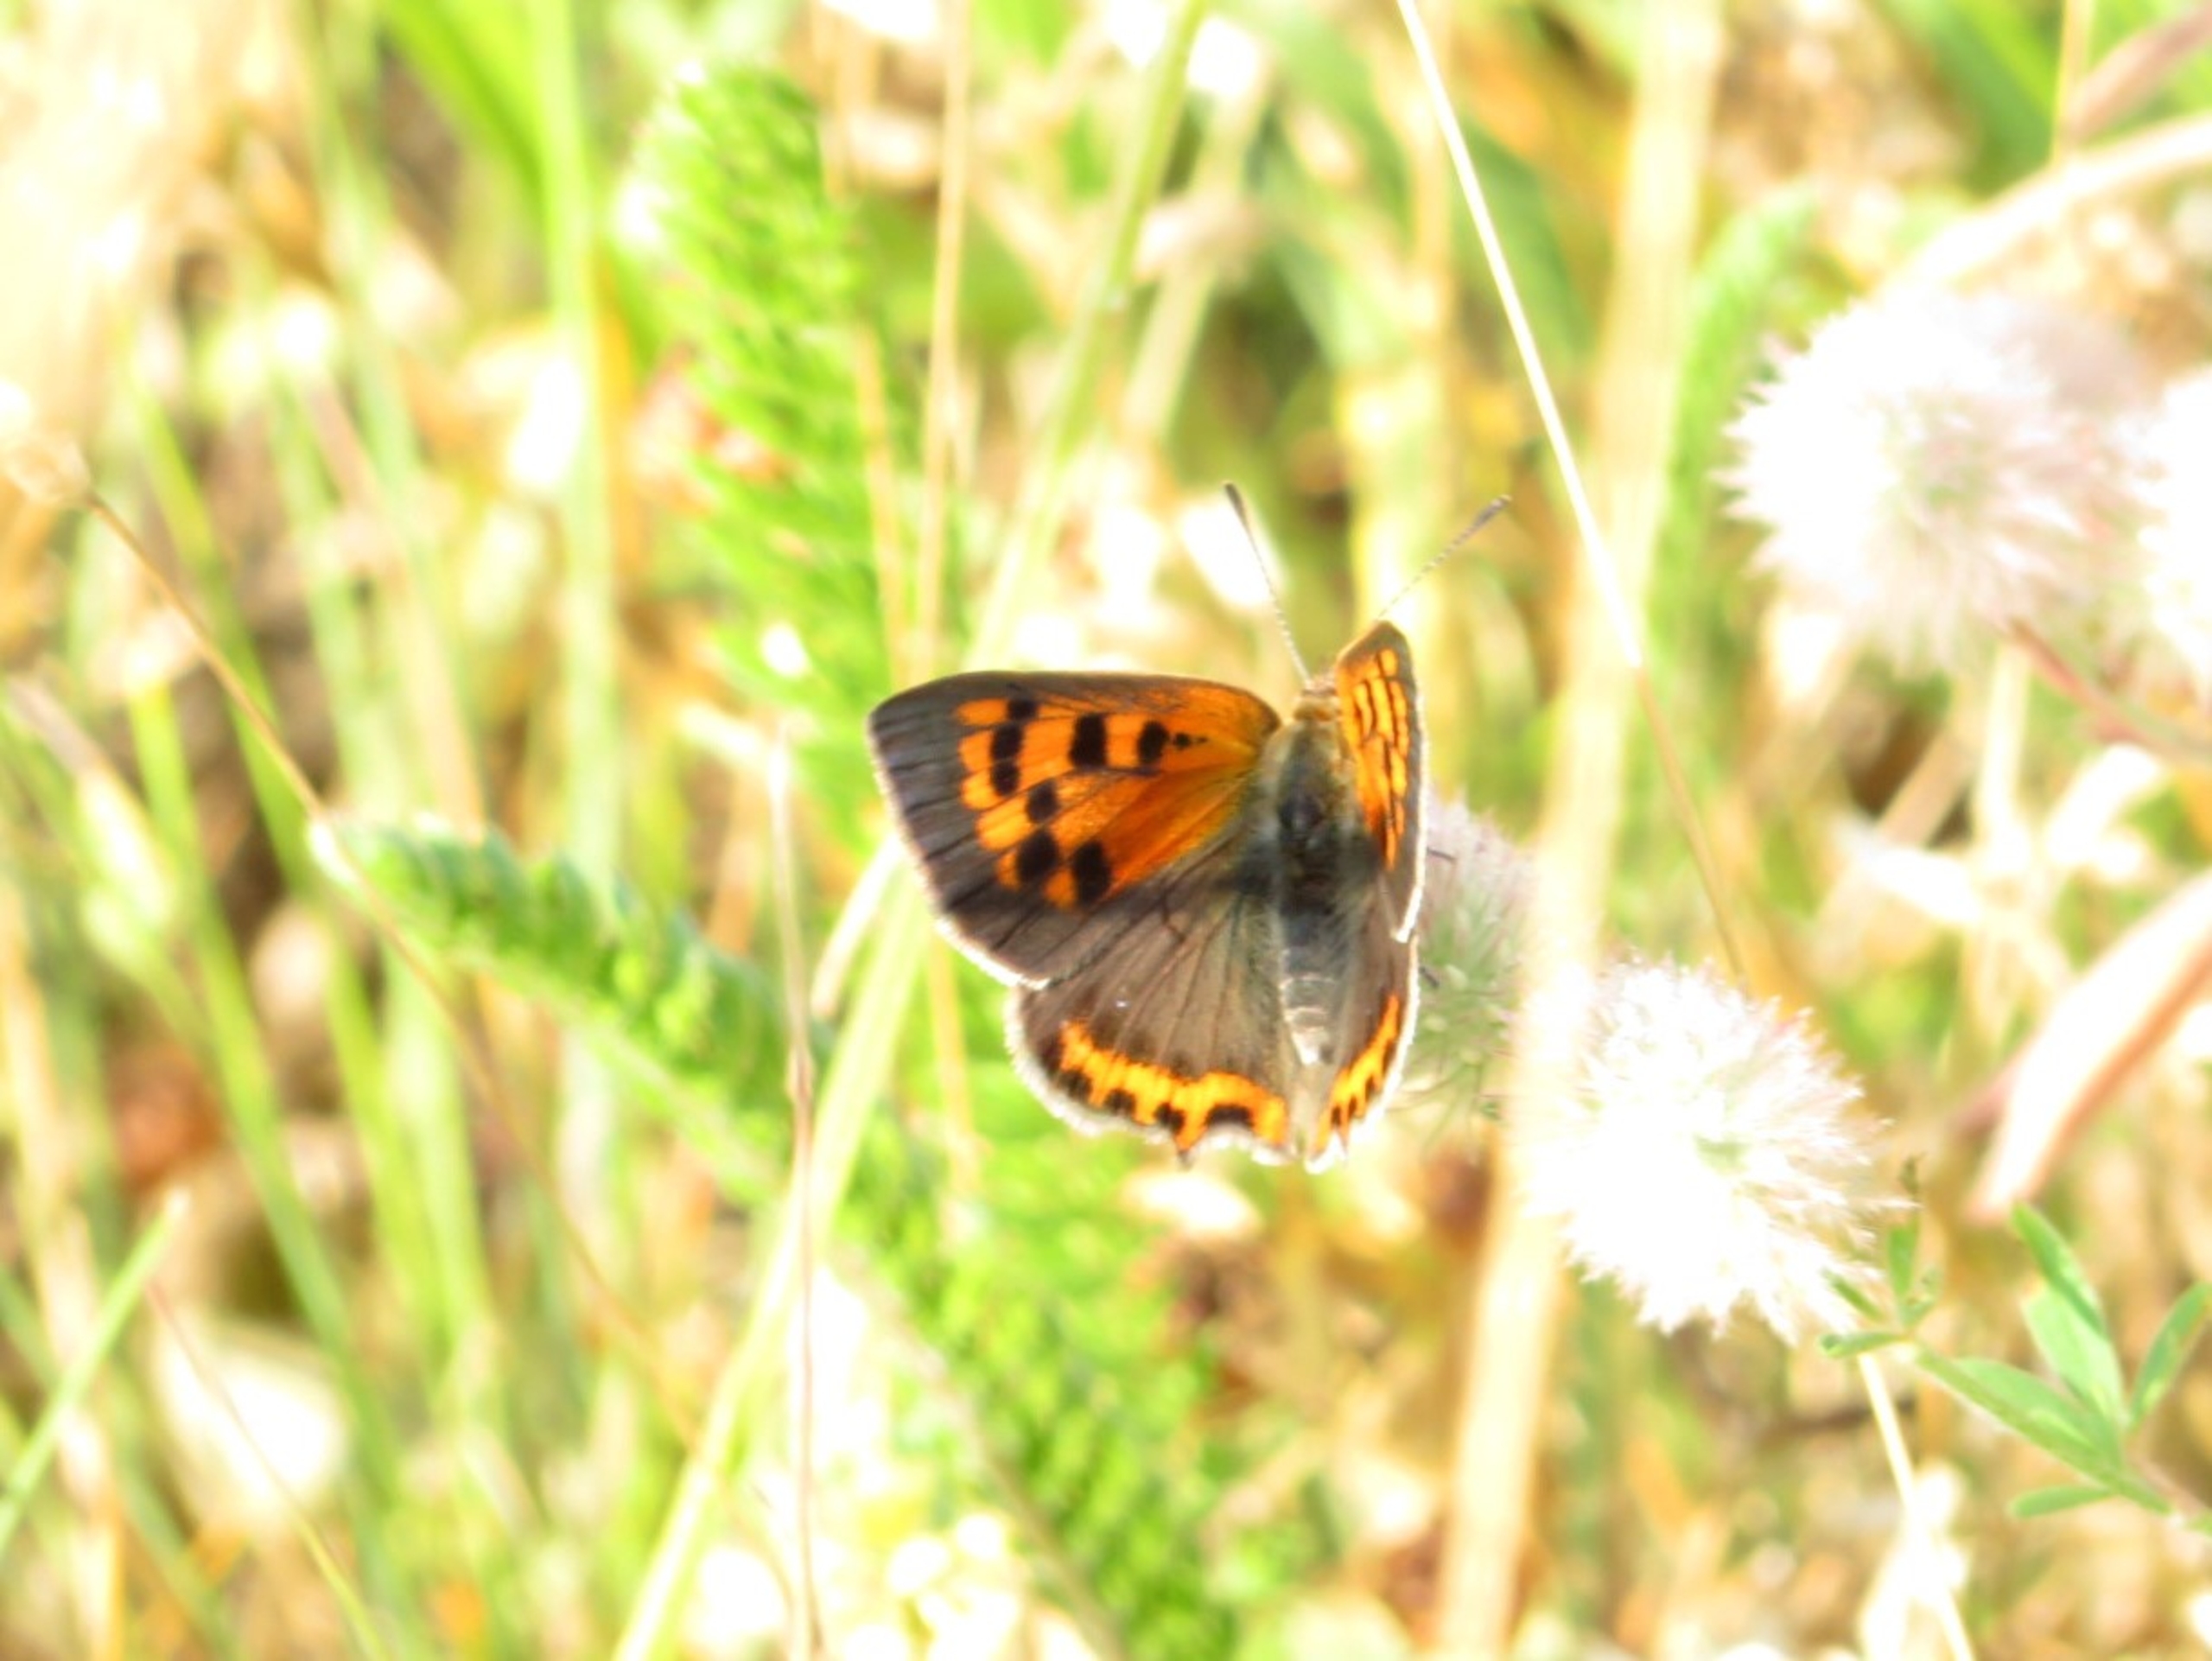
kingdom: Animalia
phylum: Arthropoda
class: Insecta
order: Lepidoptera
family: Lycaenidae
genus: Lycaena
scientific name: Lycaena phlaeas
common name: Lille ildfugl
